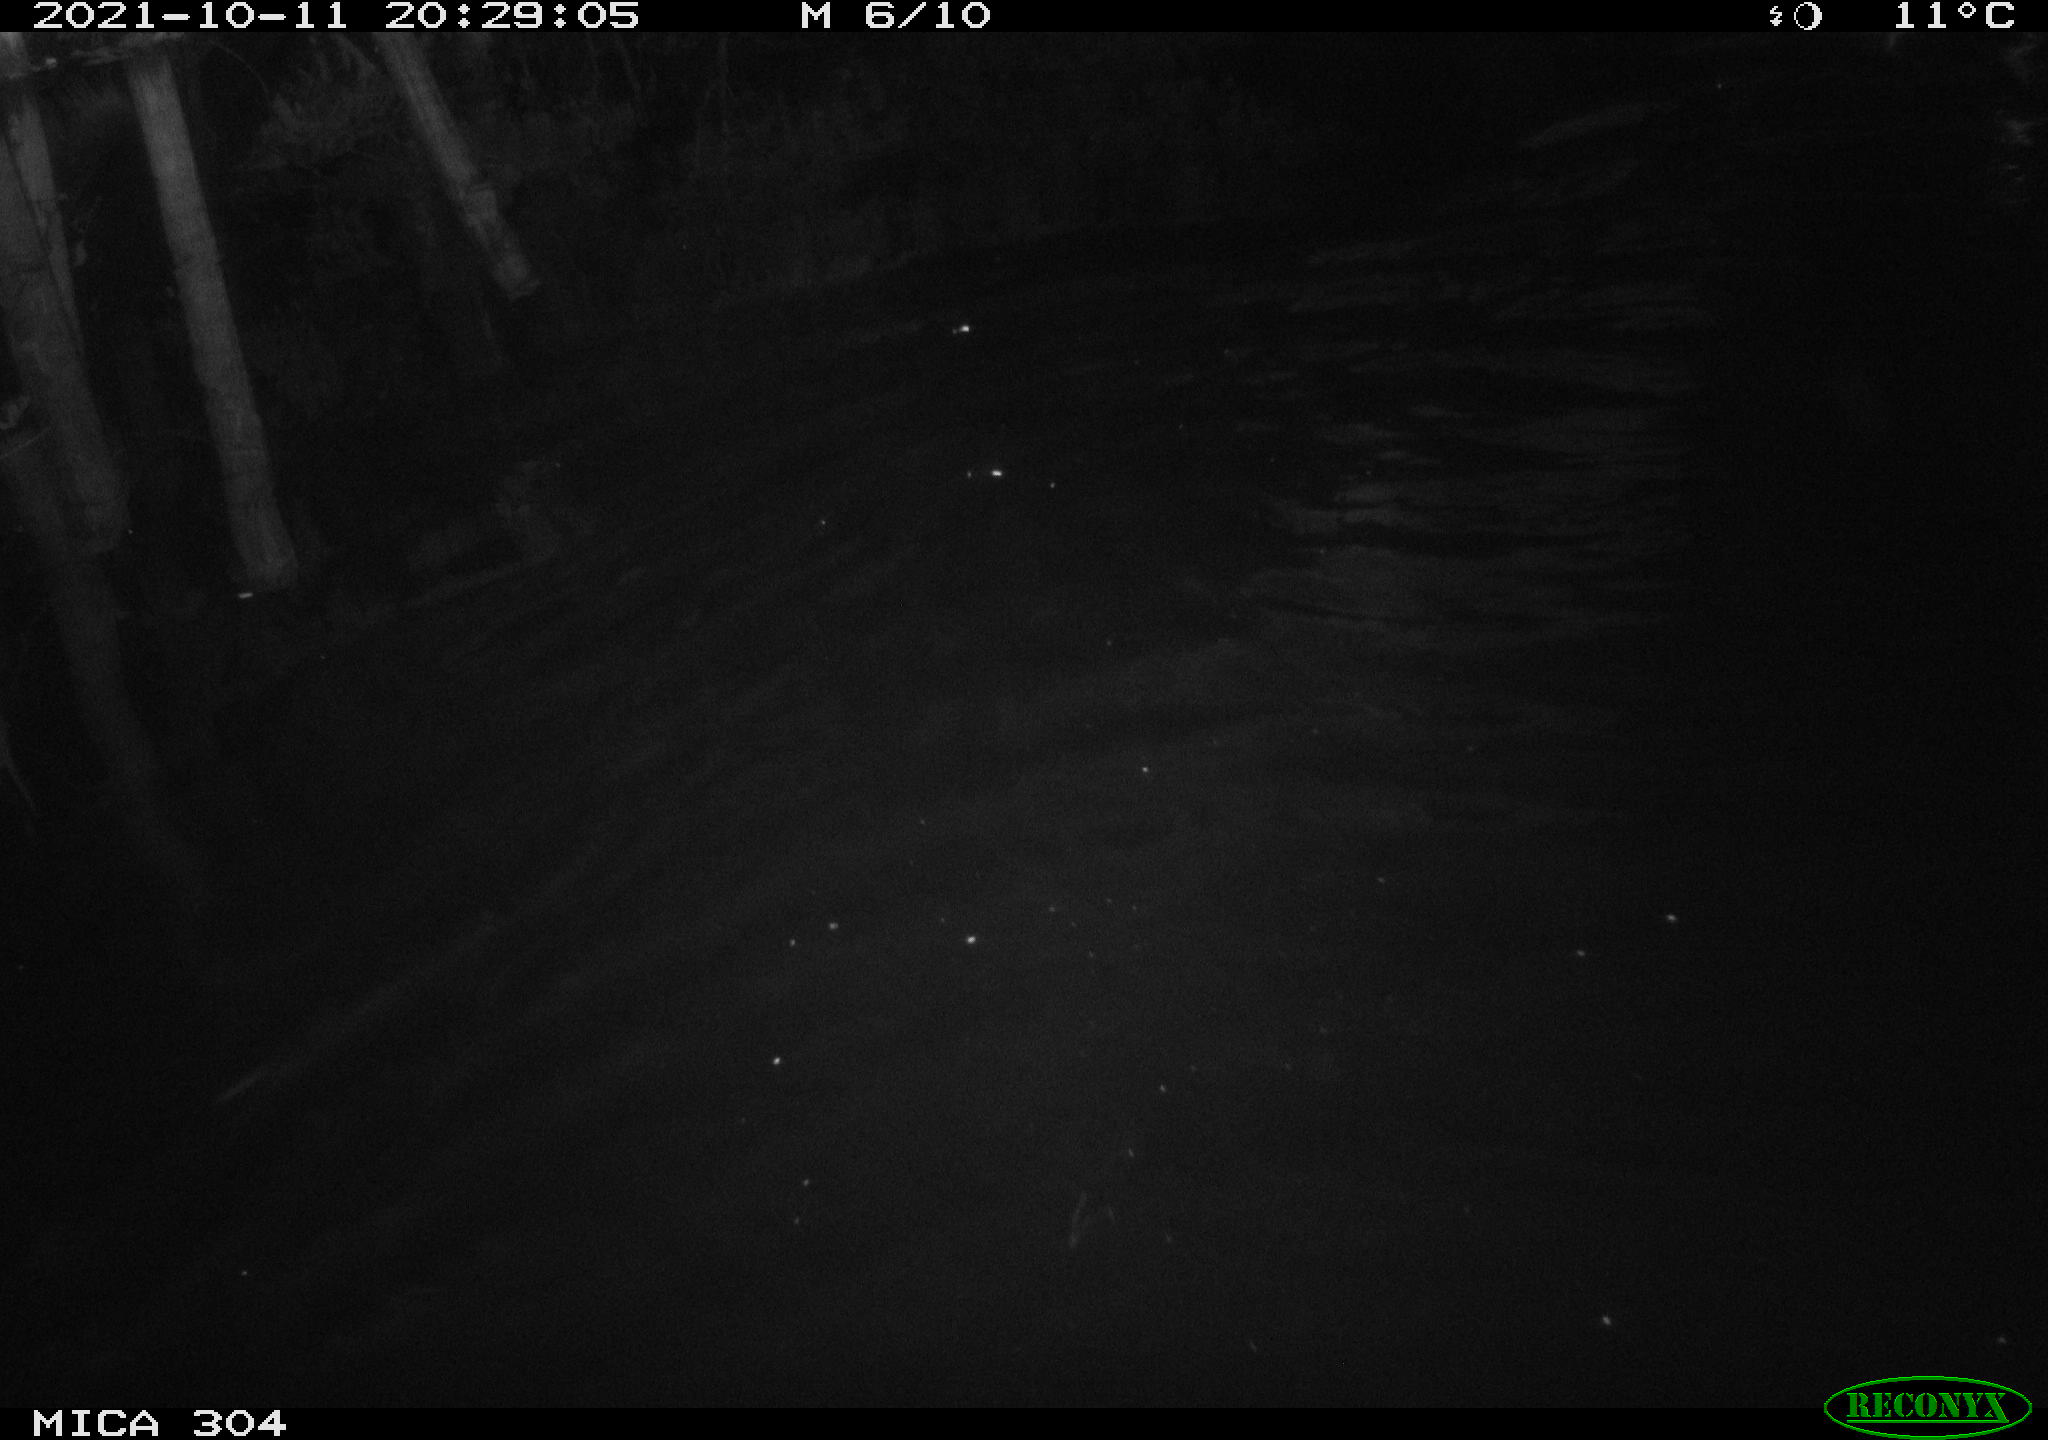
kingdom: Animalia
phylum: Chordata
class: Mammalia
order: Rodentia
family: Cricetidae
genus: Ondatra
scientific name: Ondatra zibethicus
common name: Muskrat
